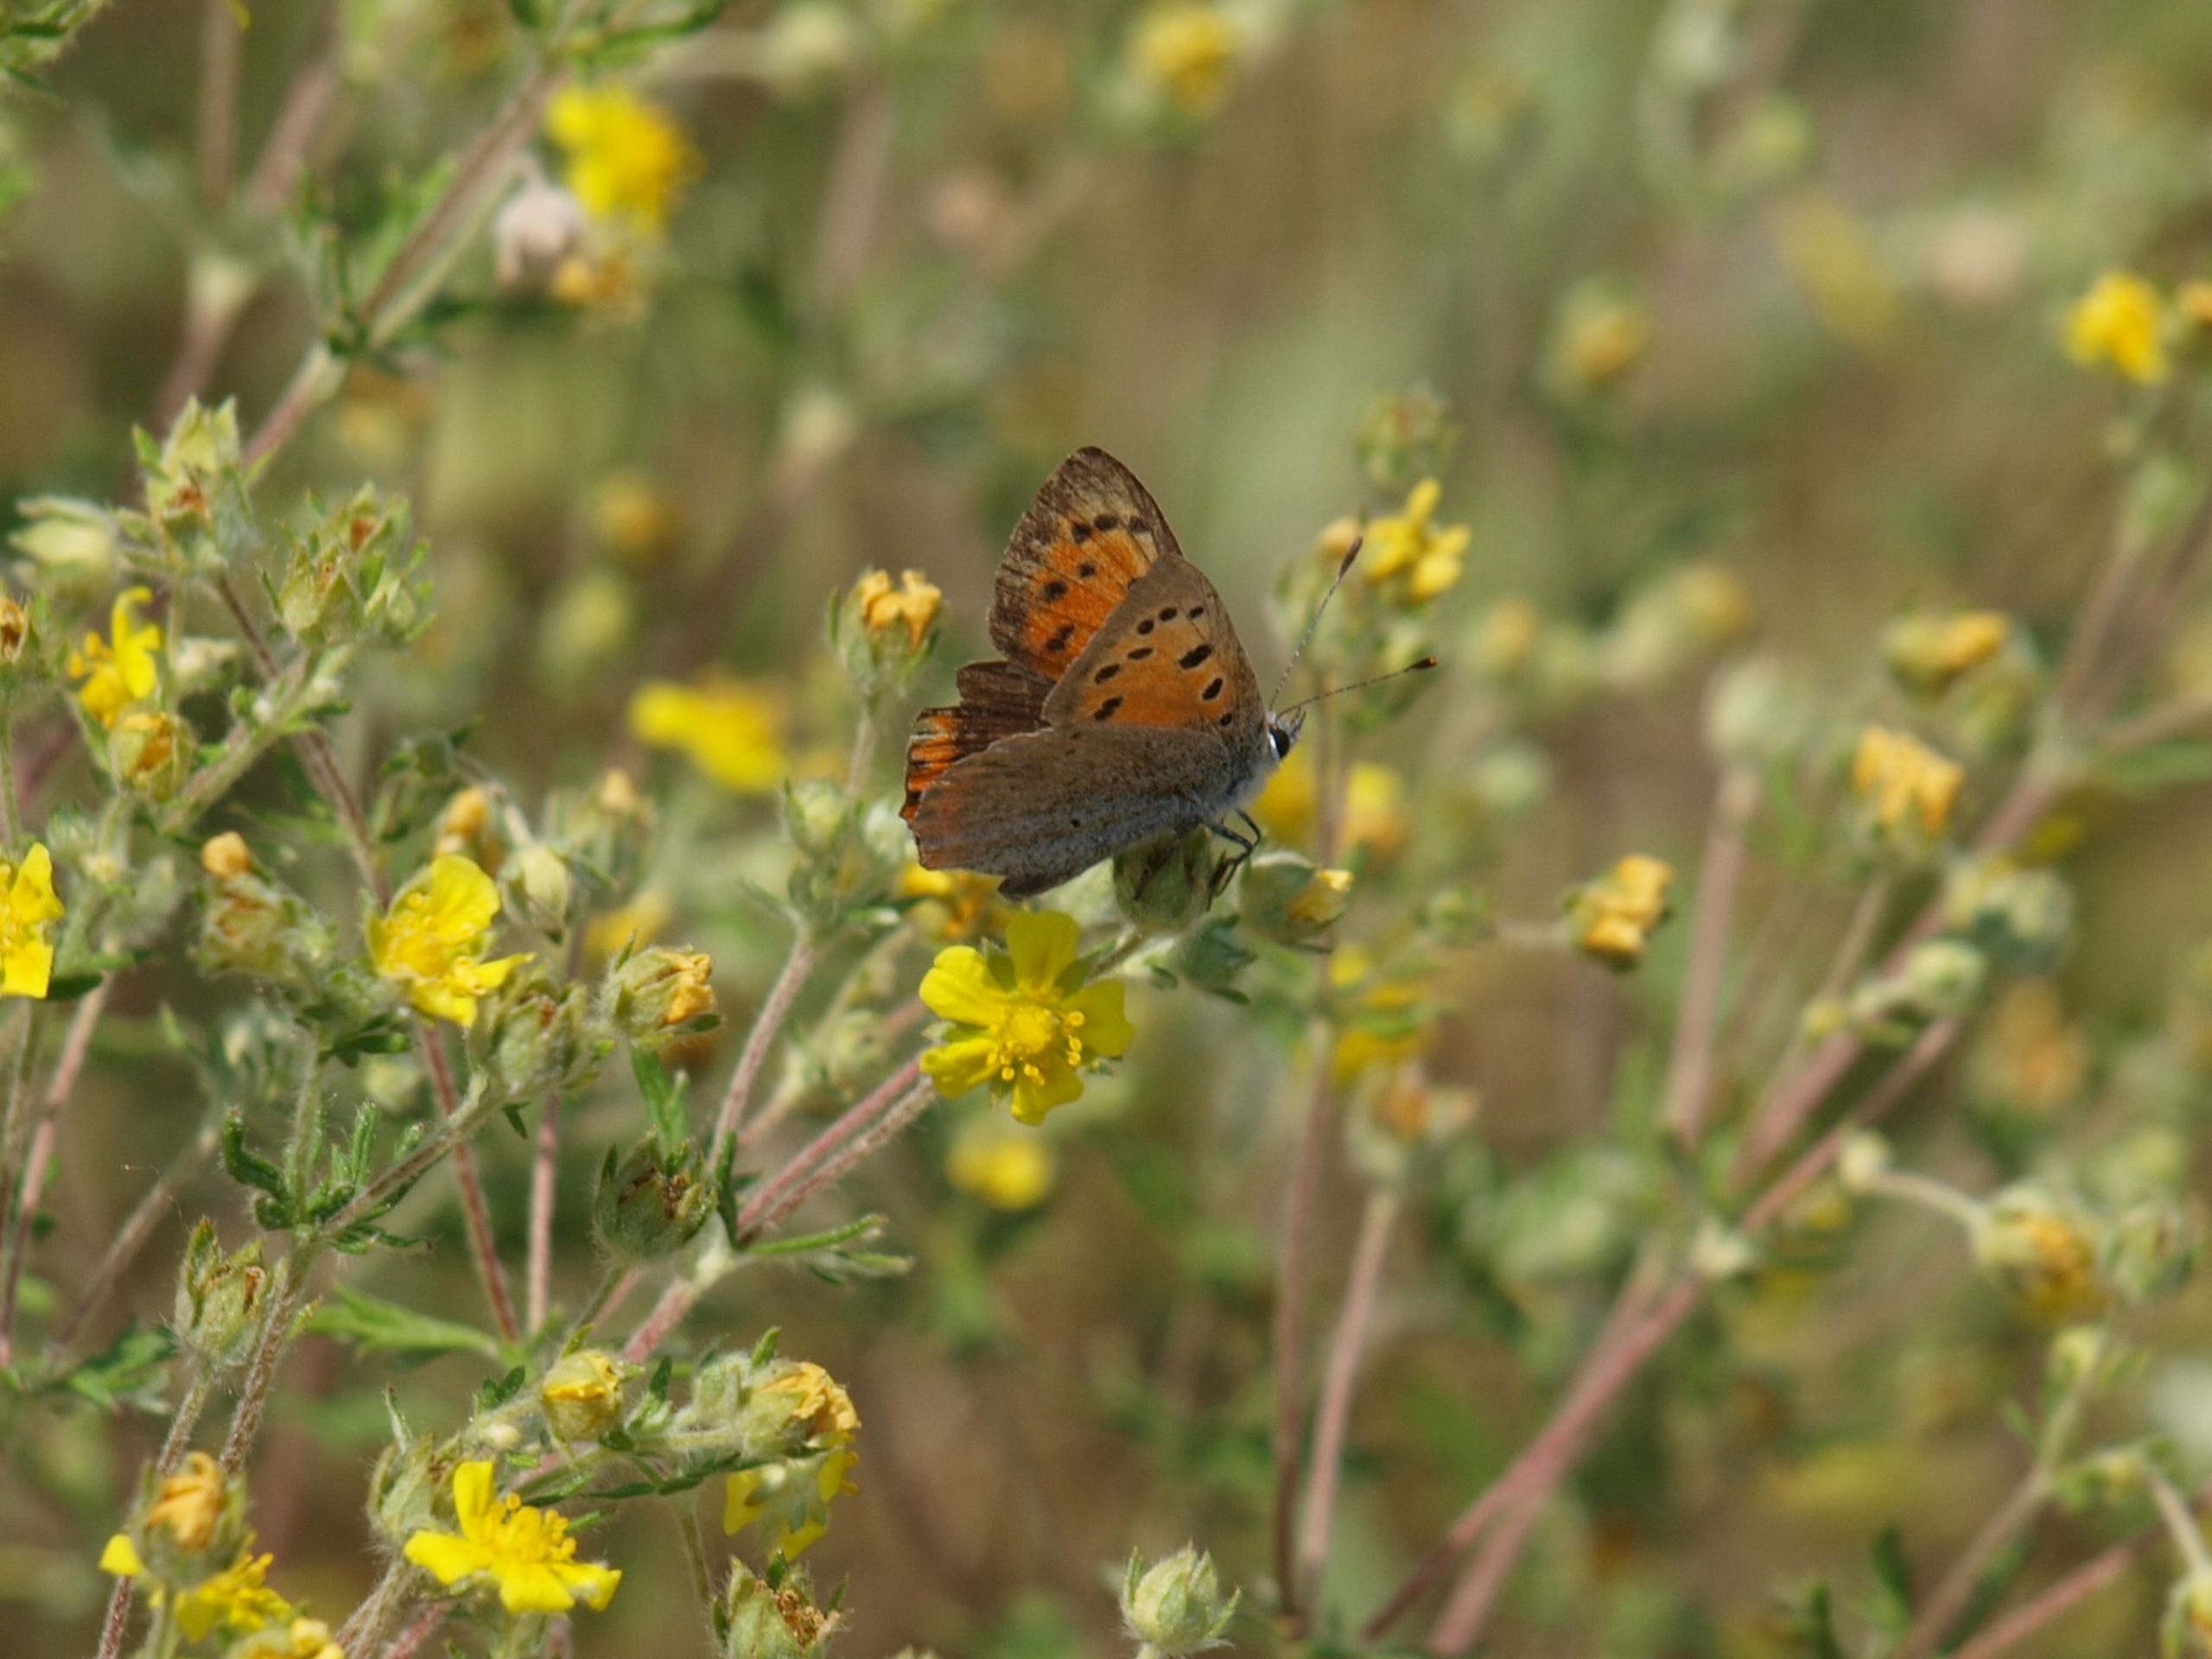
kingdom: Animalia
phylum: Arthropoda
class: Insecta
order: Lepidoptera
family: Lycaenidae
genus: Lycaena
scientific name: Lycaena phlaeas
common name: Lille ildfugl
